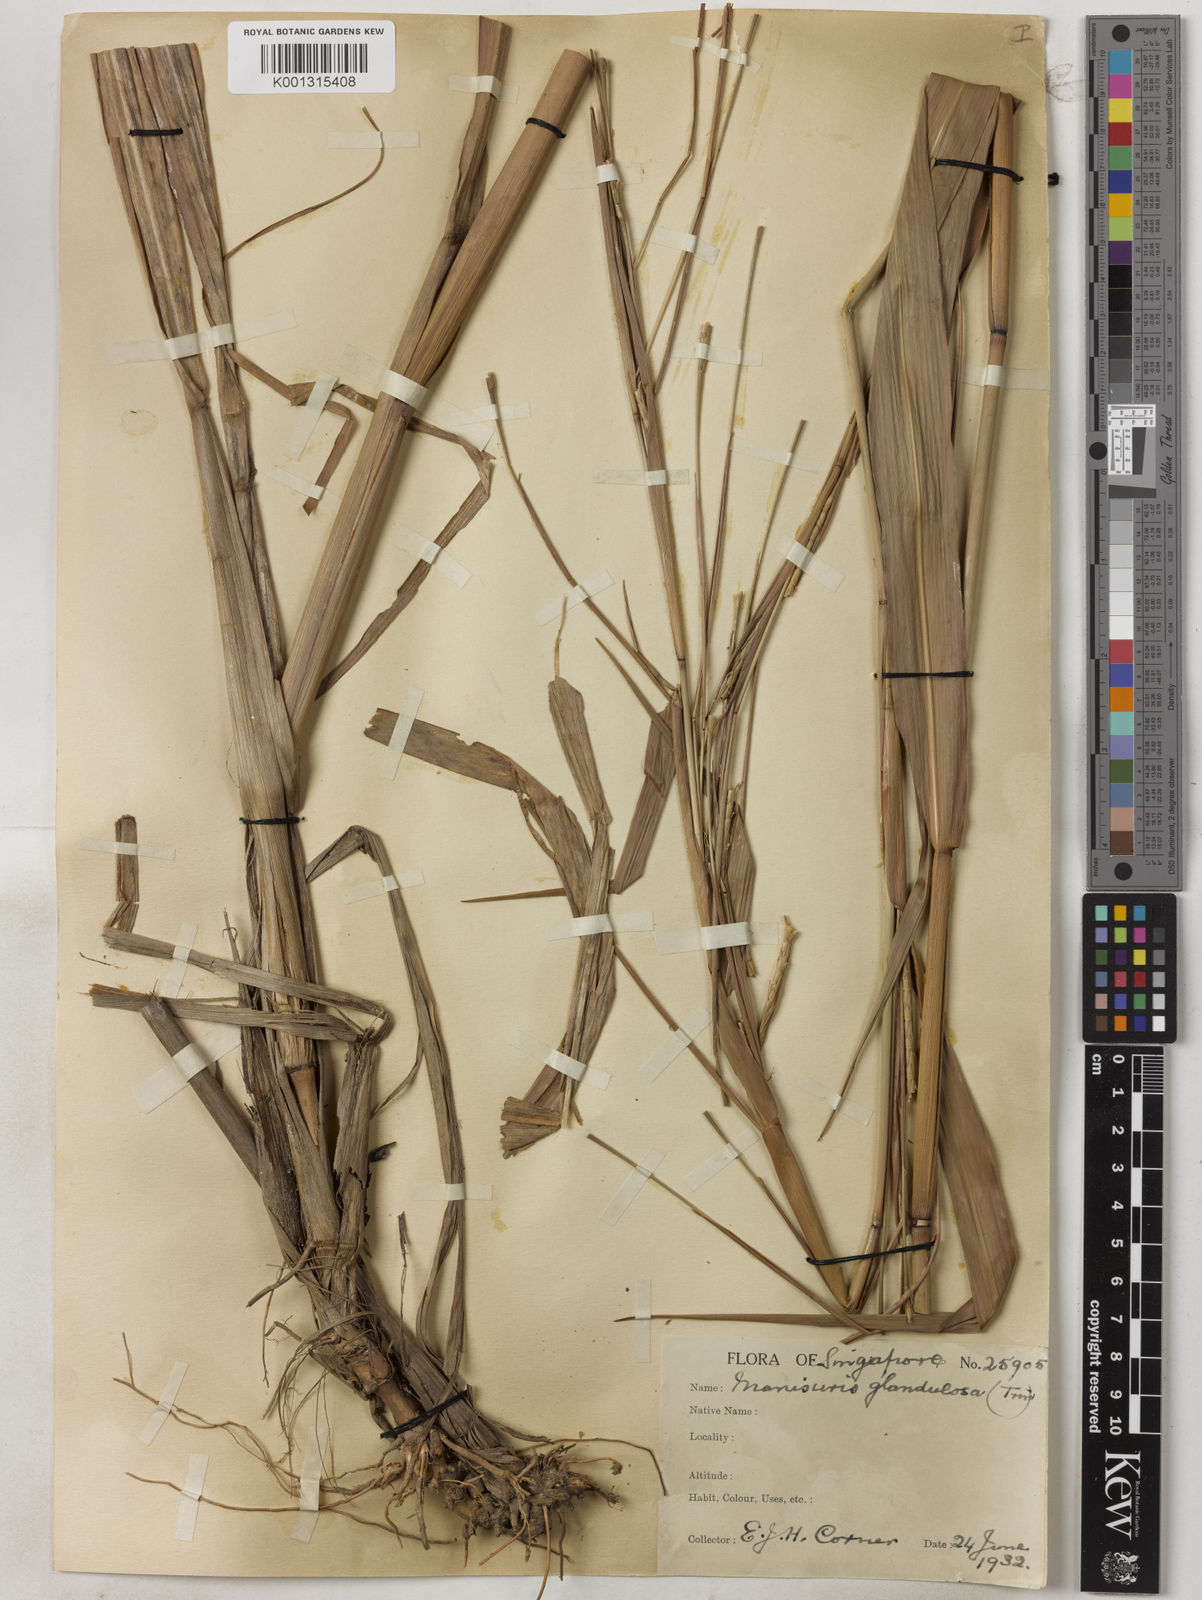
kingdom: Plantae
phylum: Tracheophyta
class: Liliopsida
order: Poales
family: Poaceae
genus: Rottboellia
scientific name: Rottboellia glandulosa
